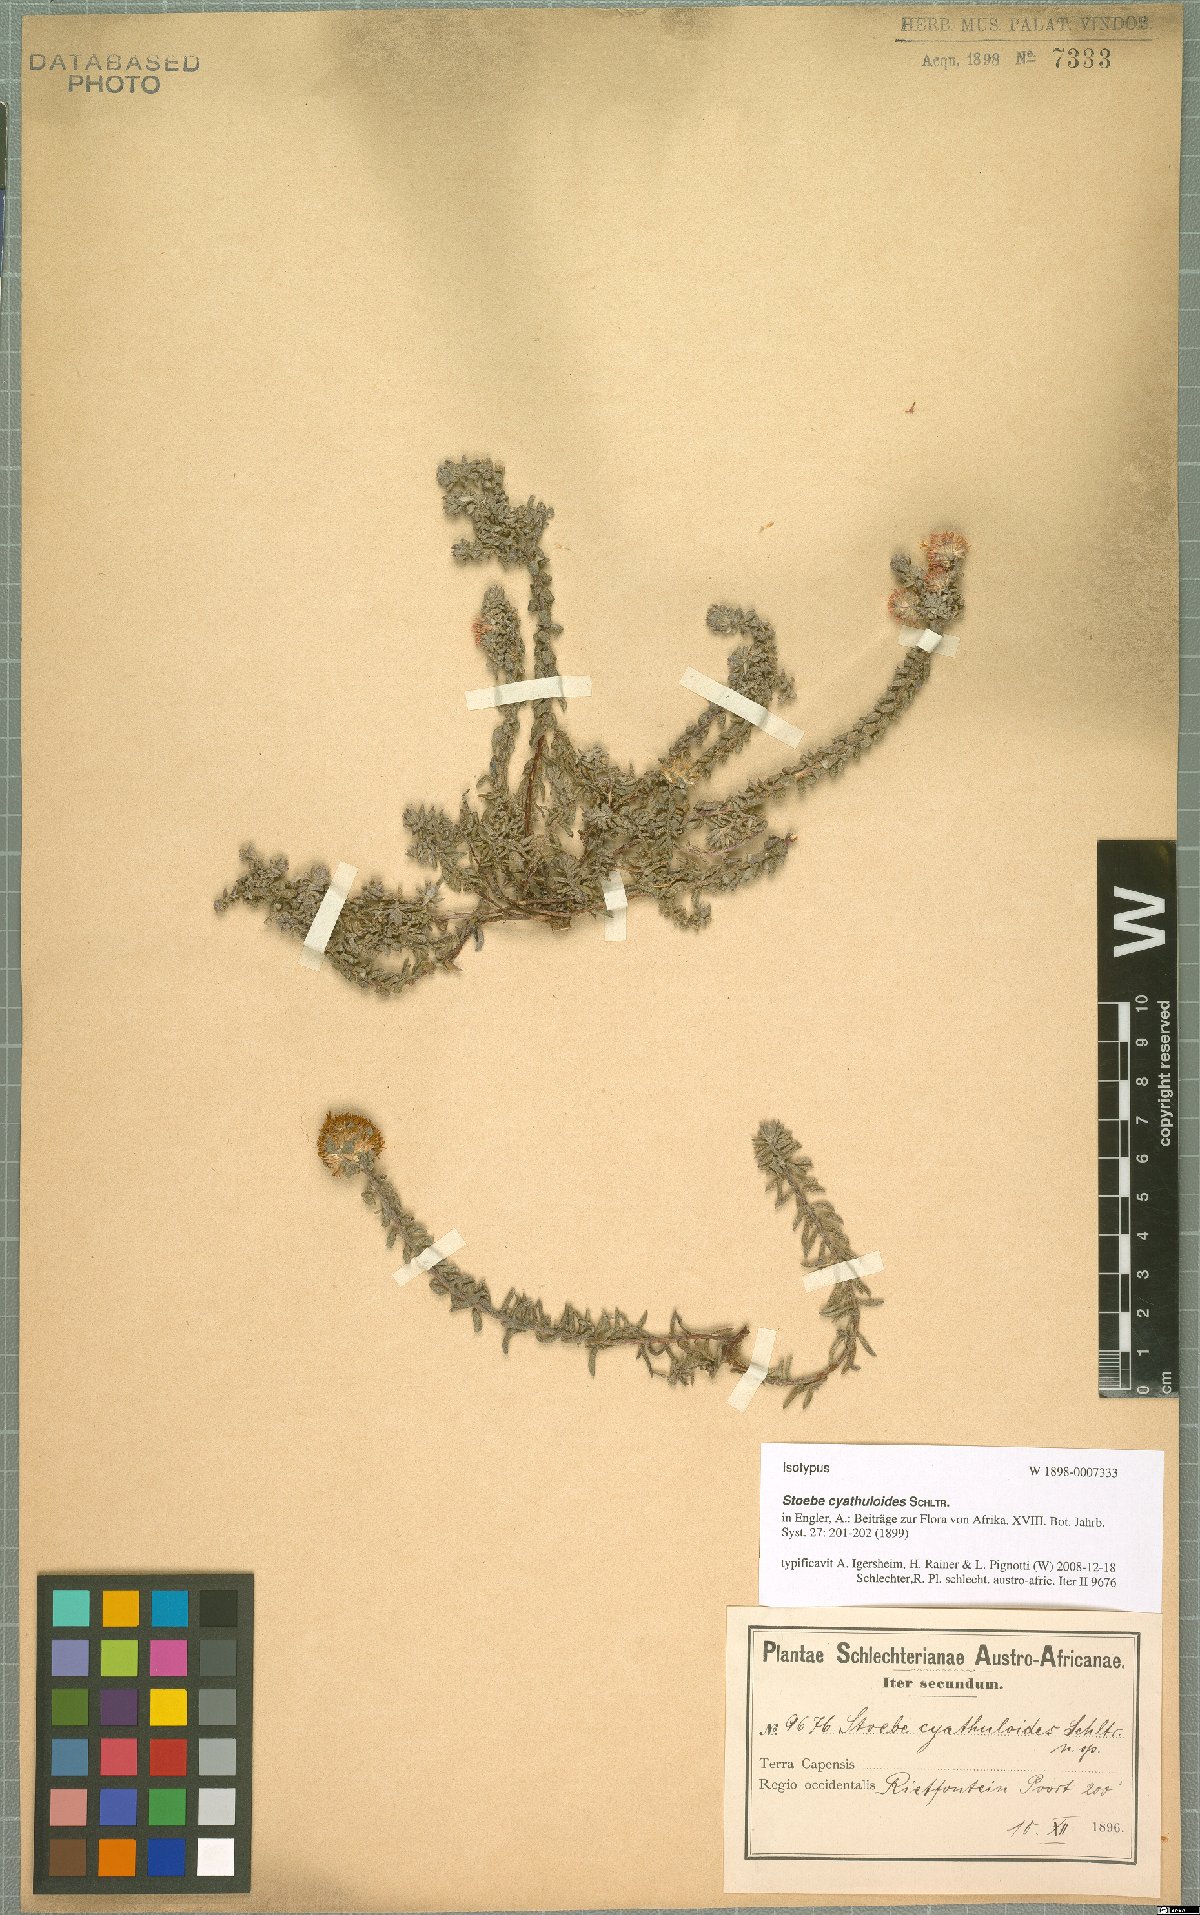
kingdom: Plantae
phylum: Tracheophyta
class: Magnoliopsida
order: Asterales
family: Asteraceae
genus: Stoebe
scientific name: Stoebe cyathuloides
